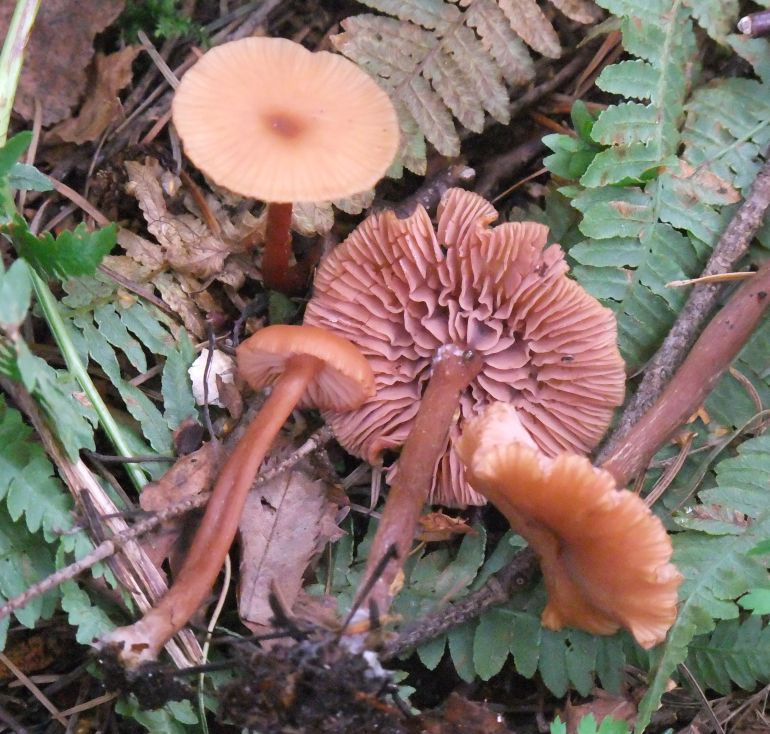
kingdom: Fungi
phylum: Basidiomycota
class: Agaricomycetes
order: Agaricales
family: Hydnangiaceae
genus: Laccaria
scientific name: Laccaria laccata
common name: rød ametysthat
